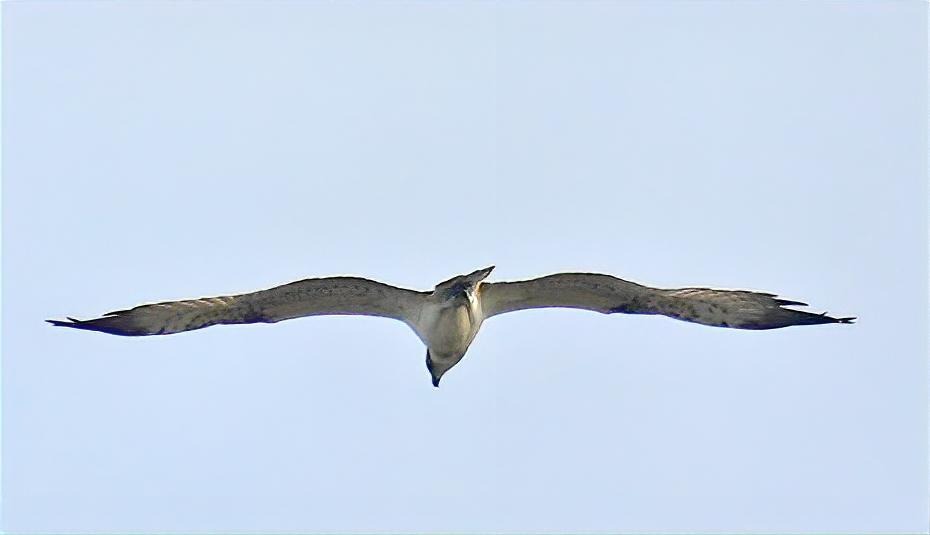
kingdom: Animalia
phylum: Chordata
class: Aves
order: Accipitriformes
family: Pandionidae
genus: Pandion
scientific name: Pandion haliaetus
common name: Fiskeørn
